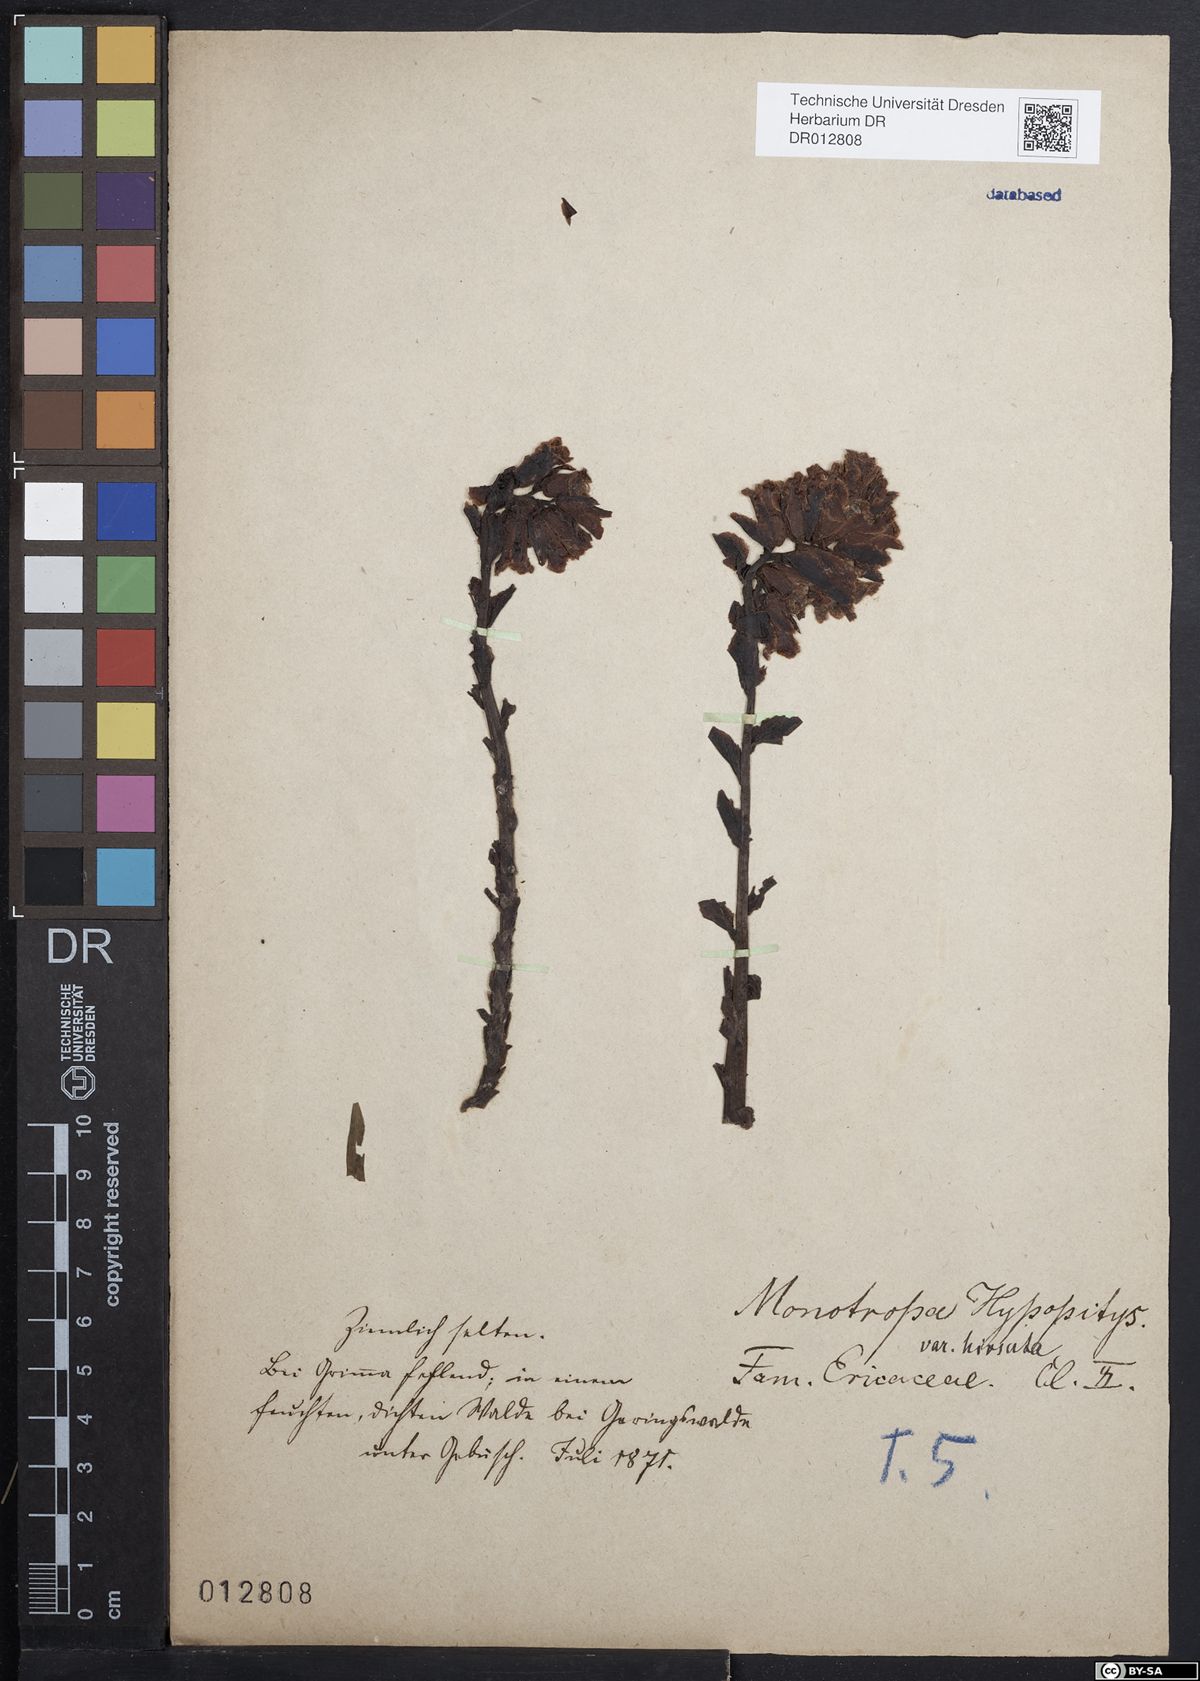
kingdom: Plantae
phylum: Tracheophyta
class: Magnoliopsida
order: Ericales
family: Ericaceae
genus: Hypopitys
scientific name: Hypopitys monotropa
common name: Yellow bird's-nest
